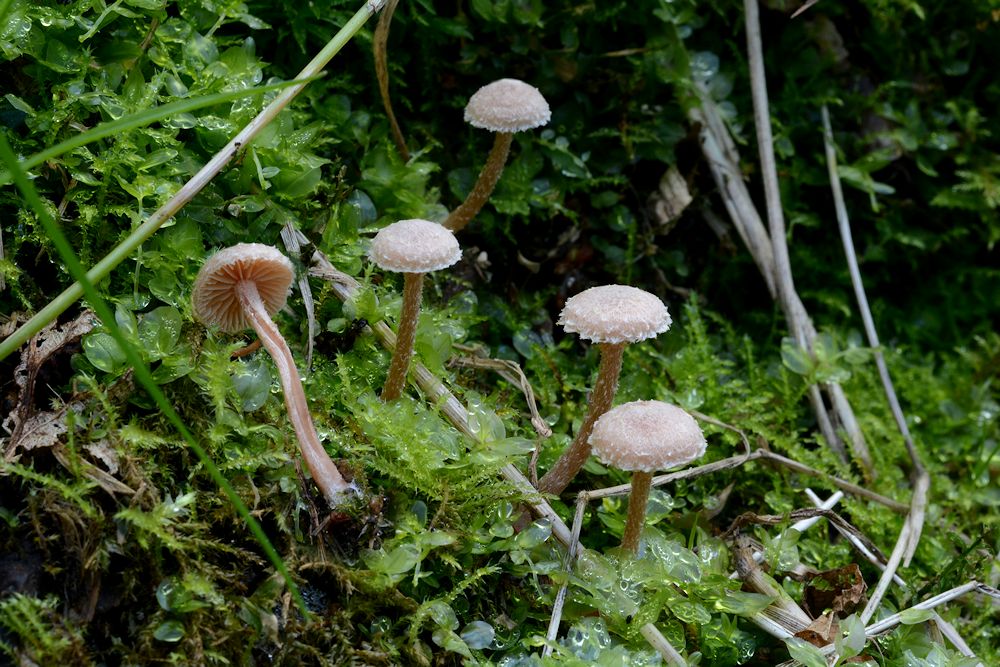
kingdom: Fungi
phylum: Basidiomycota
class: Agaricomycetes
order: Agaricales
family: Tubariaceae
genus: Tubaria
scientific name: Tubaria conspersa
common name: bleg fnughat
